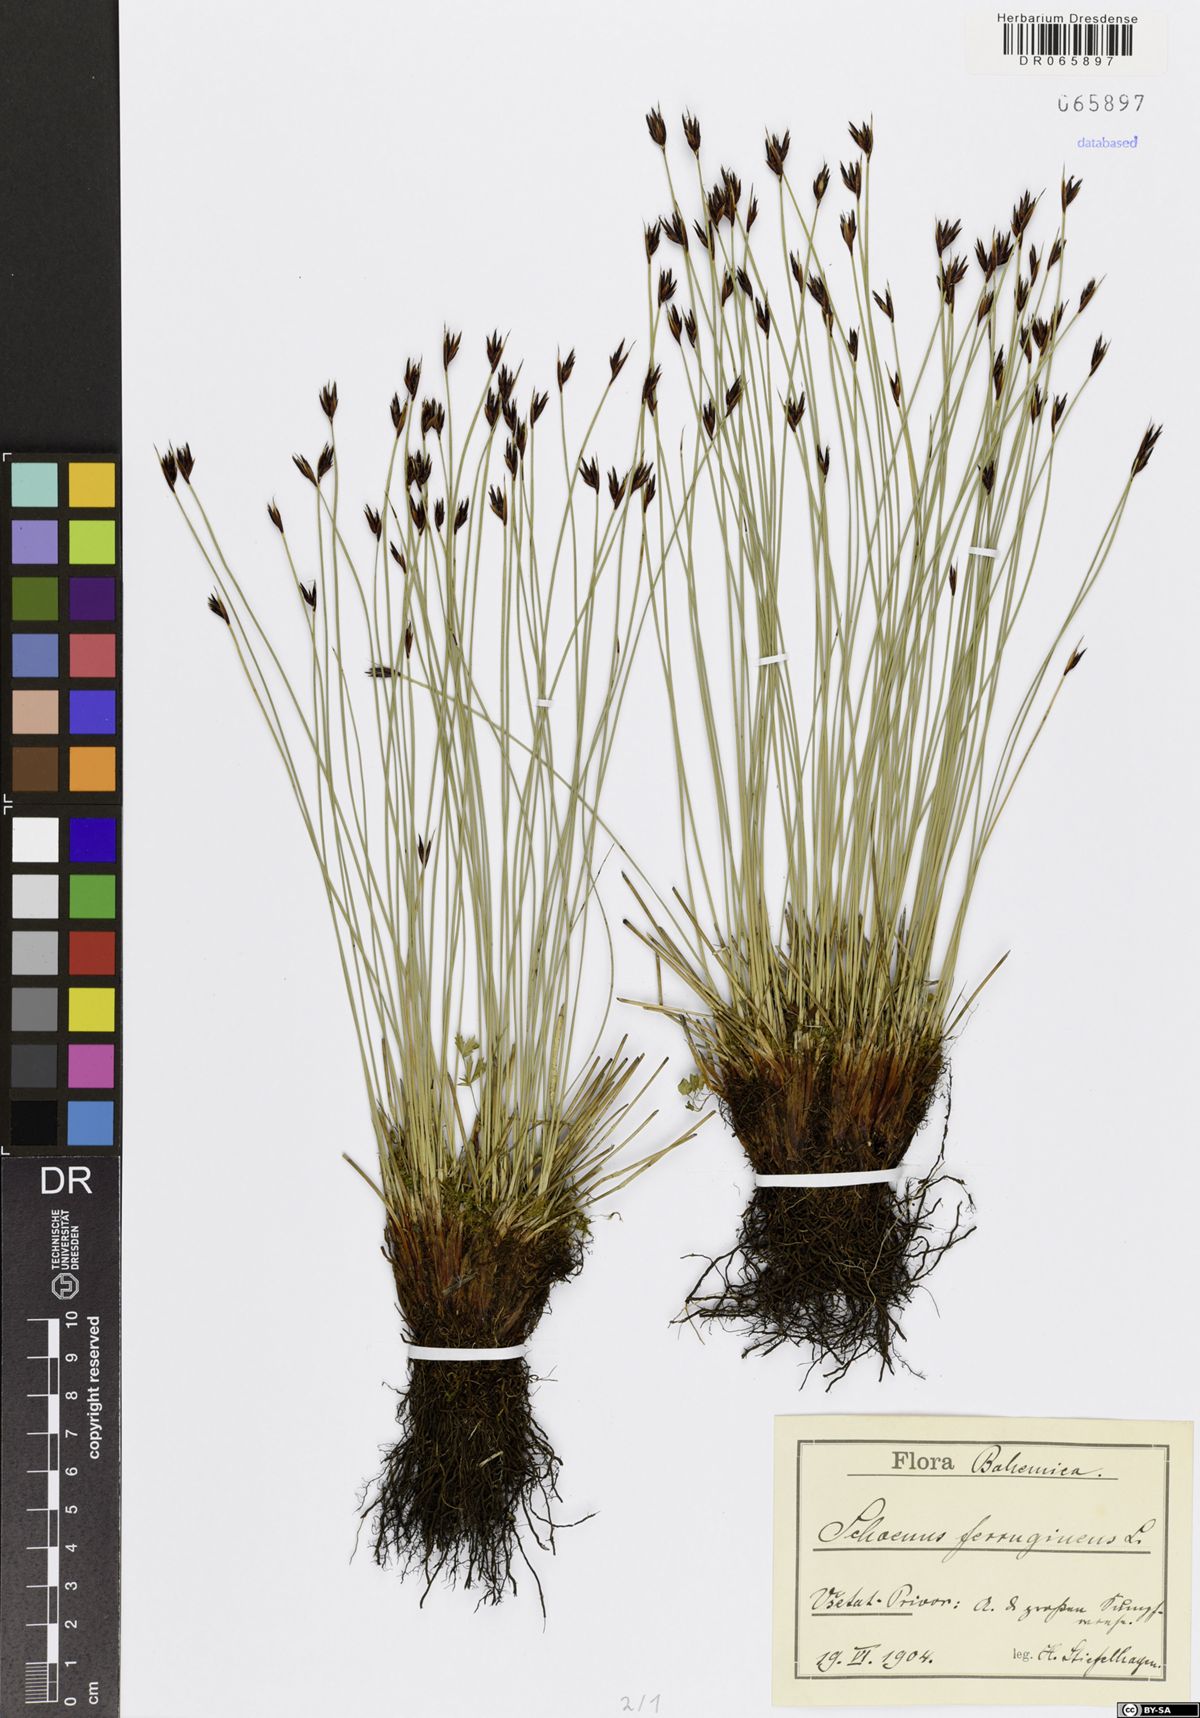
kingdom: Plantae
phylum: Tracheophyta
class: Liliopsida
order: Poales
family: Cyperaceae
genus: Schoenus
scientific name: Schoenus ferrugineus
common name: Brown bog-rush
